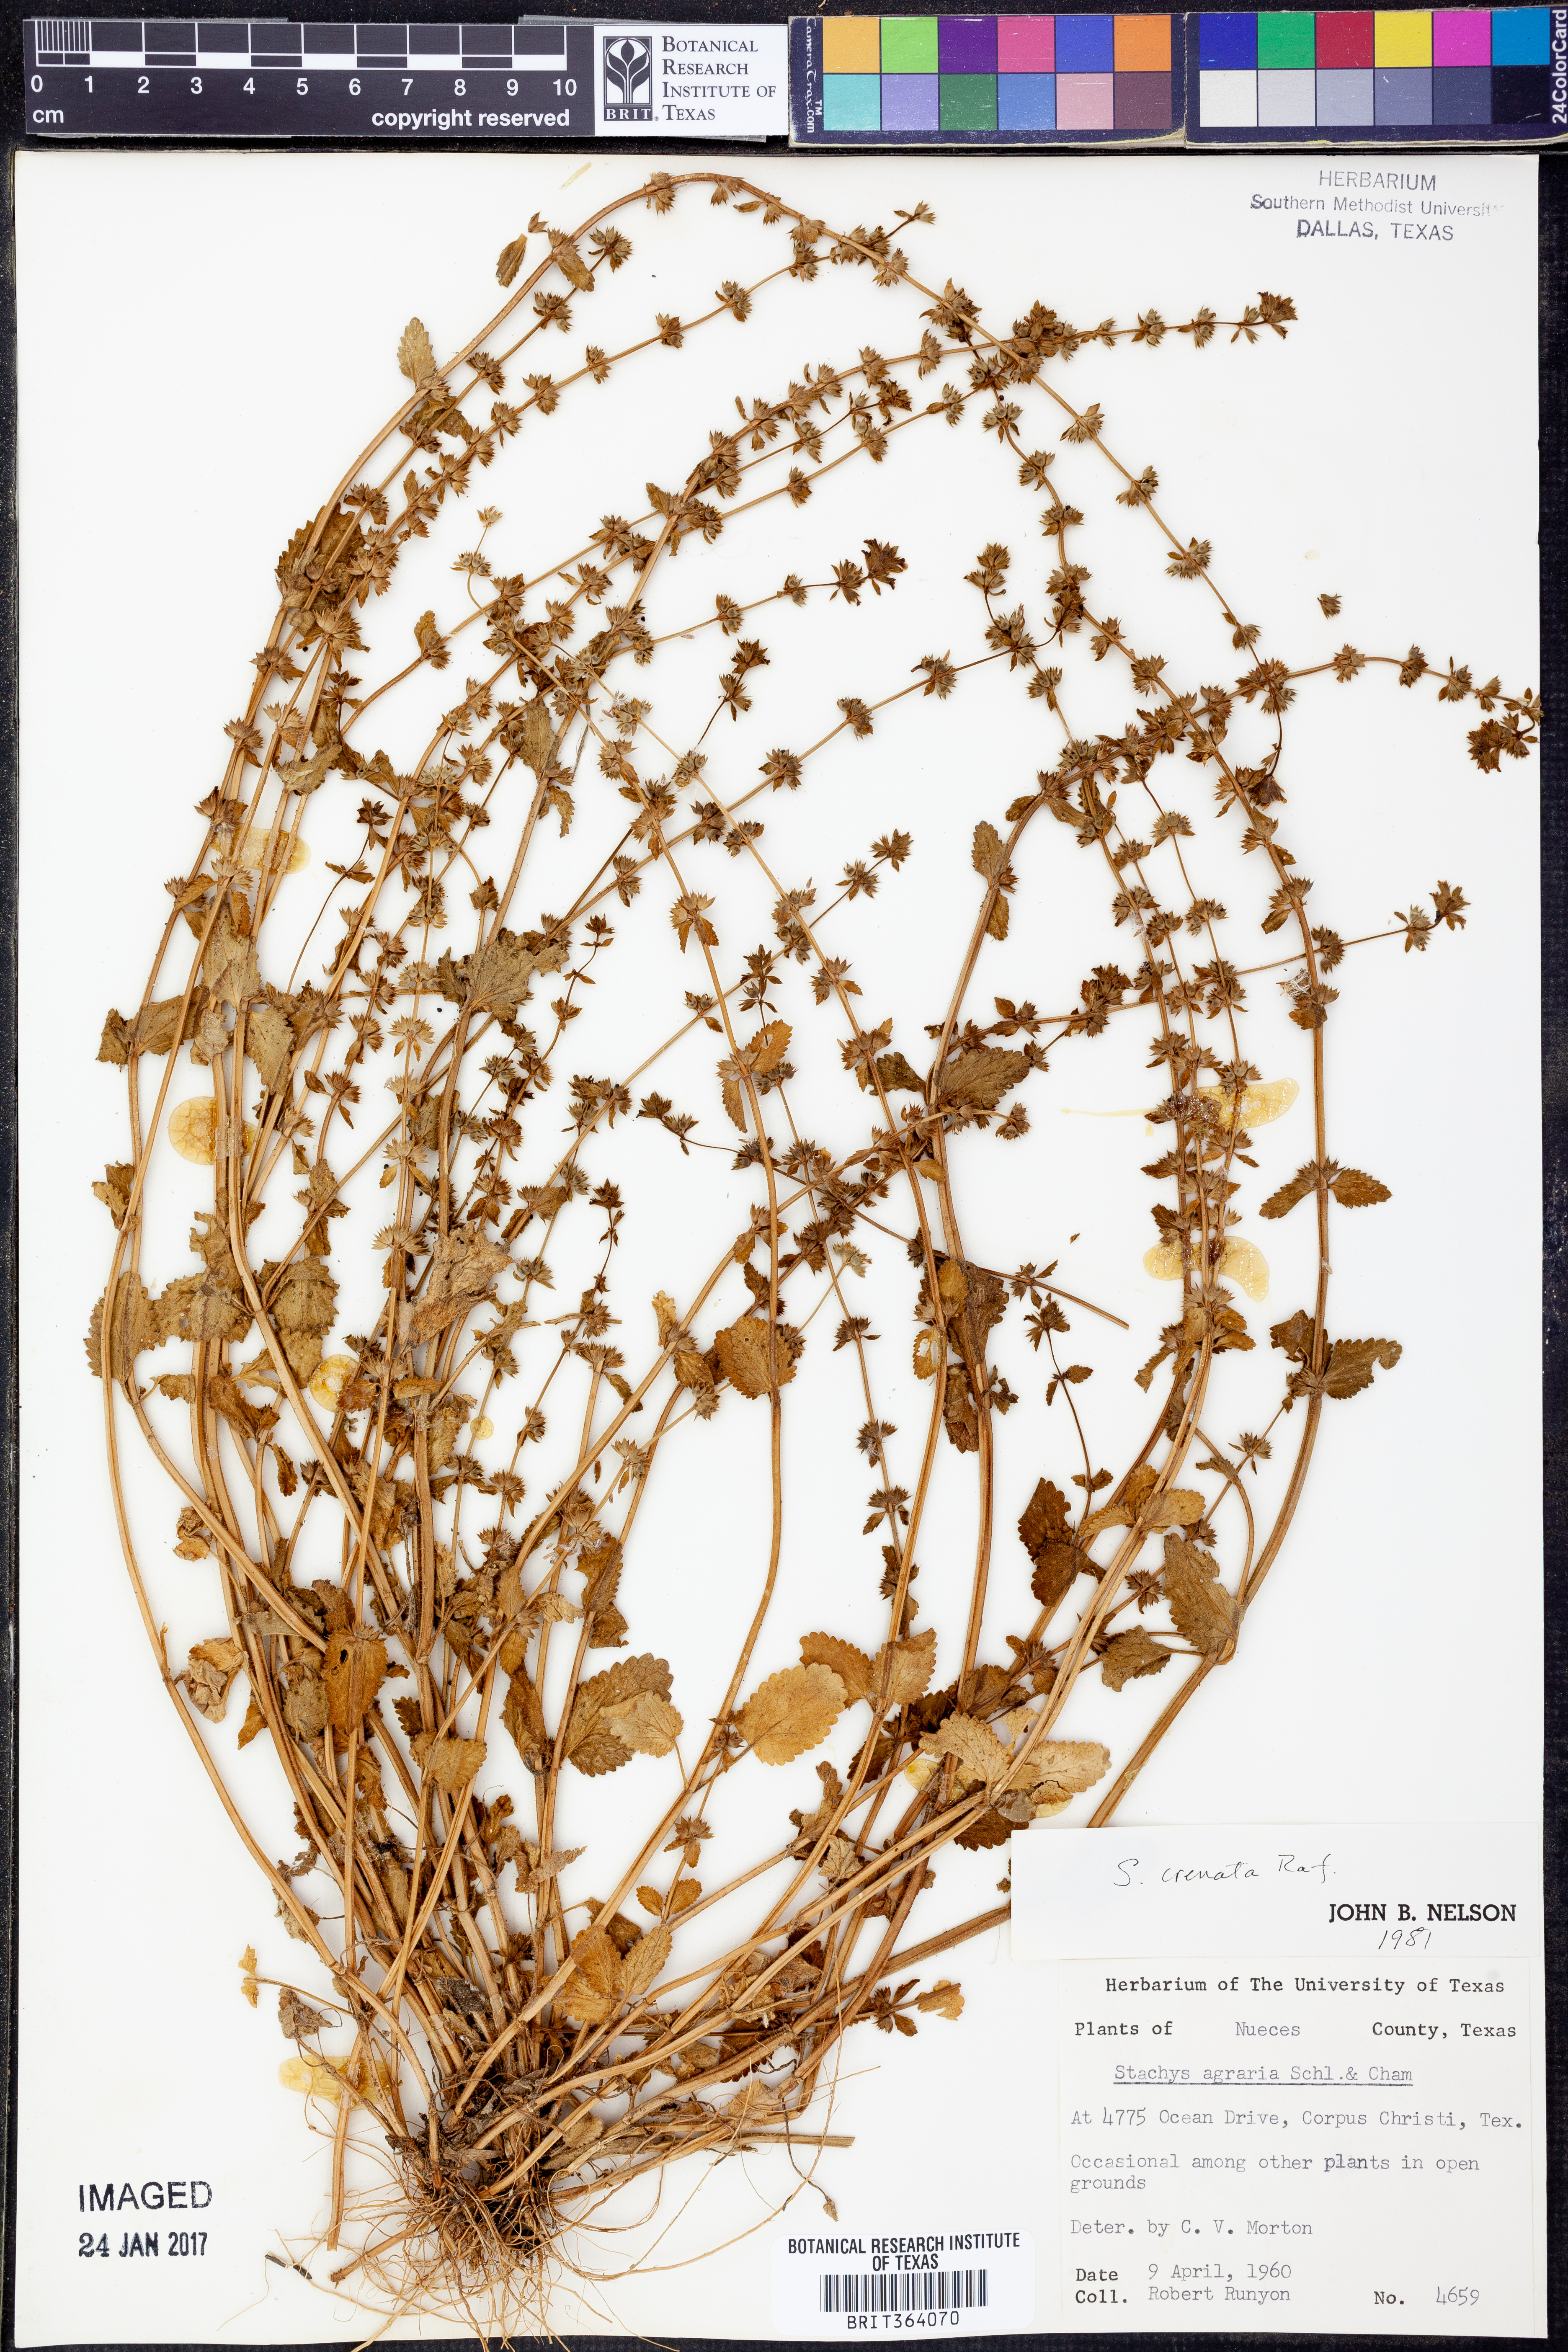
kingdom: Plantae
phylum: Tracheophyta
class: Magnoliopsida
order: Lamiales
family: Lamiaceae
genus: Stachys
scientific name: Stachys agraria
